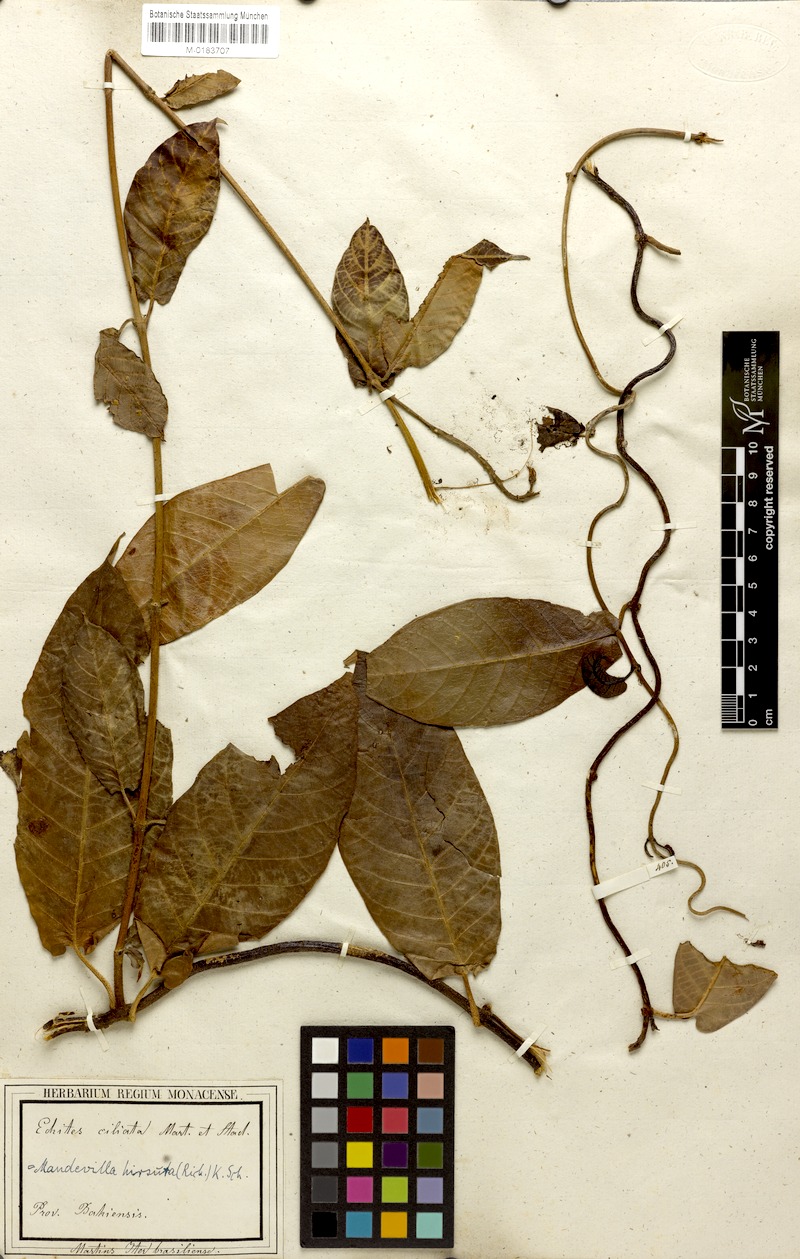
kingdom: Plantae
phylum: Tracheophyta
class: Magnoliopsida
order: Gentianales
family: Apocynaceae
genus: Mandevilla
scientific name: Mandevilla hirsuta
